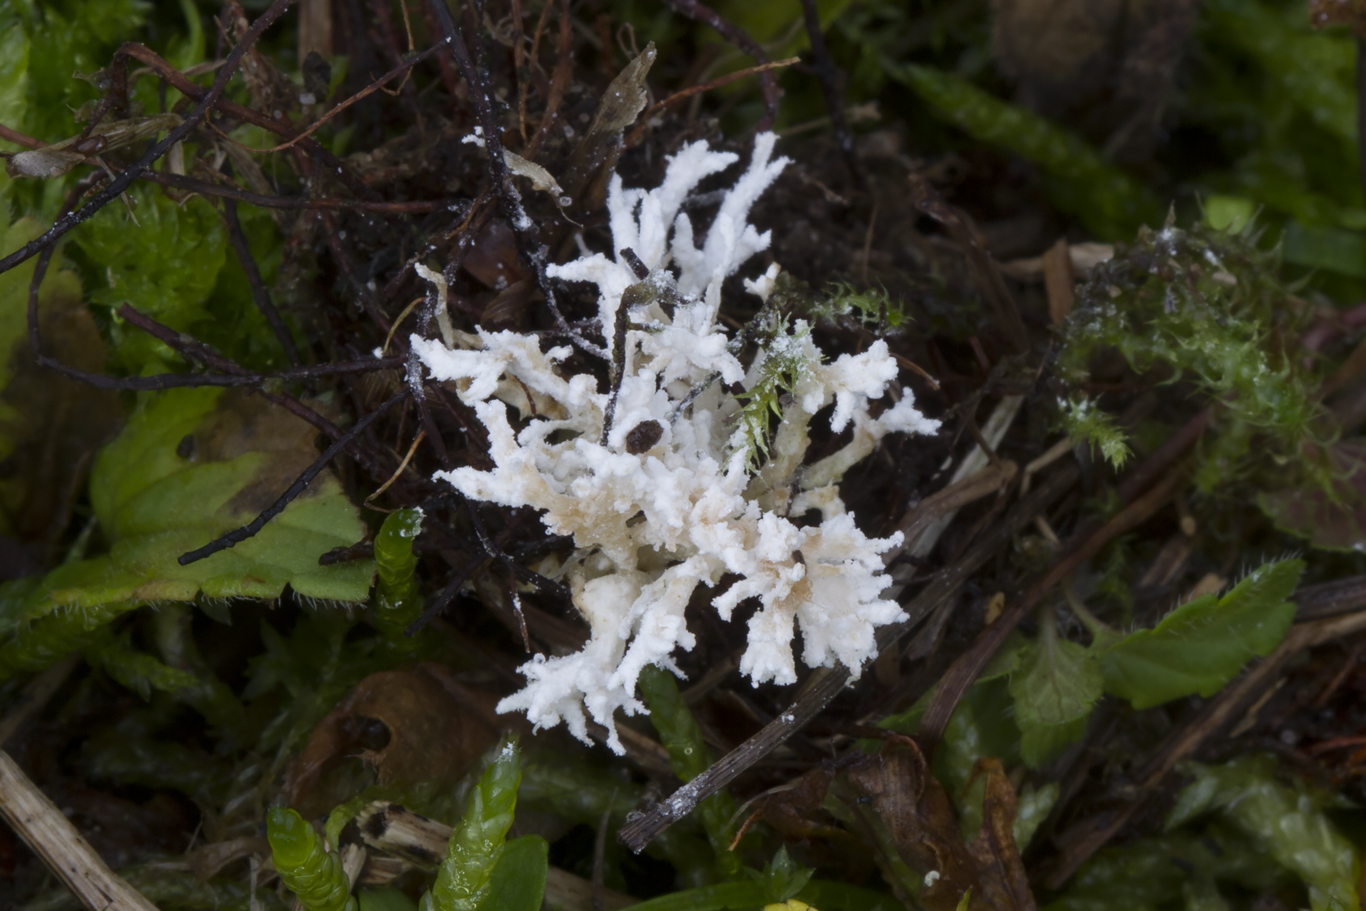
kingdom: Fungi
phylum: Ascomycota
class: Sordariomycetes
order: Hypocreales
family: Cordycipitaceae
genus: Cordyceps
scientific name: Cordyceps
